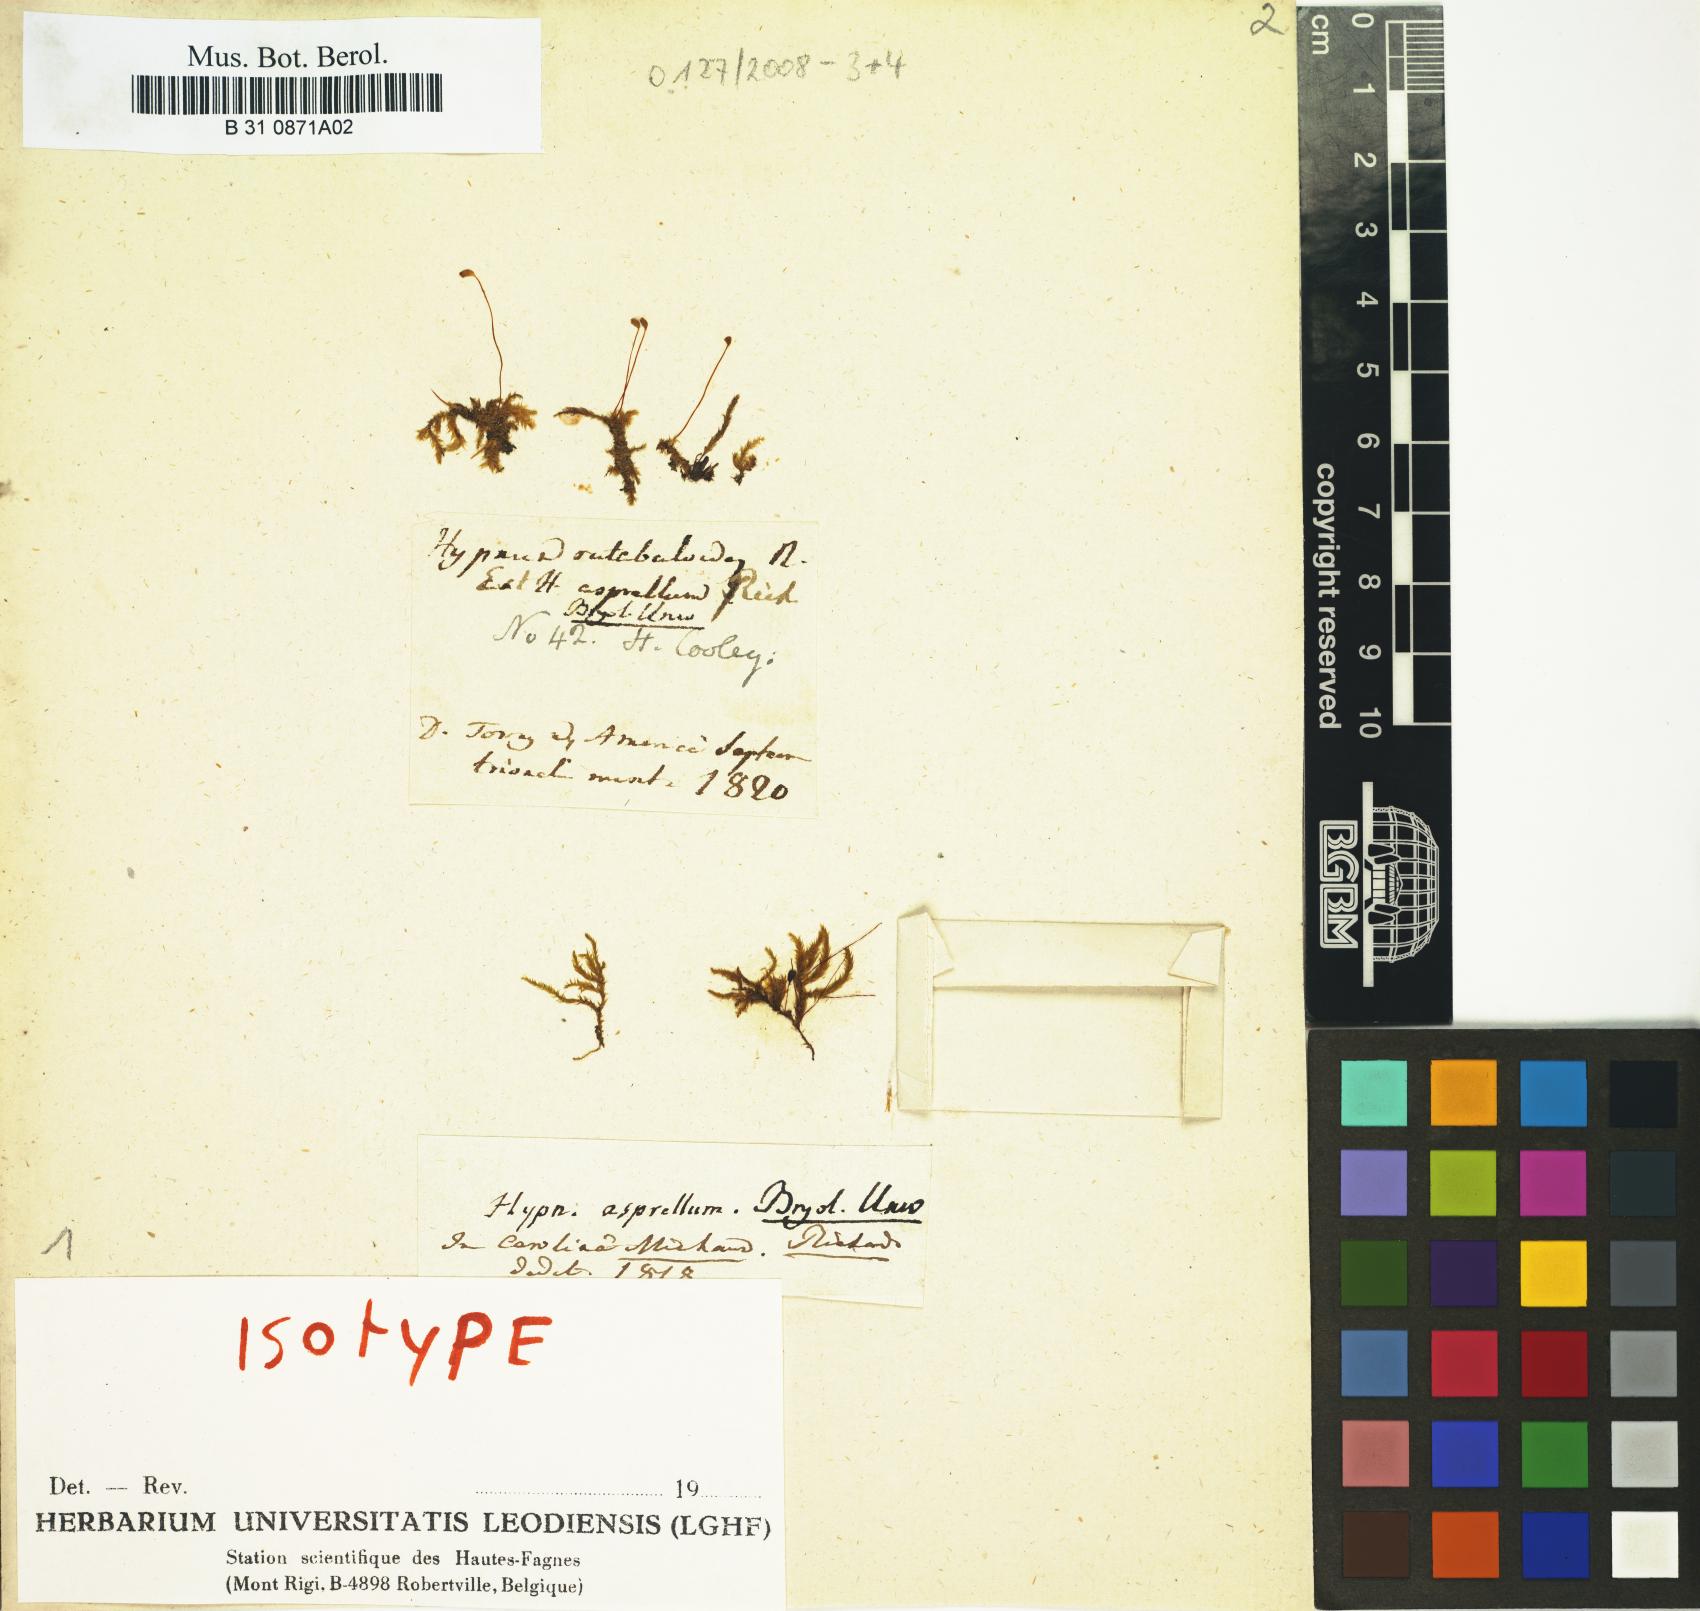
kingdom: Plantae
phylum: Bryophyta
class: Bryopsida
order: Hypnales
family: Brachytheciaceae
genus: Sciuro-hypnum
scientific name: Sciuro-hypnum plumosum
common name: Rusty feather-moss
